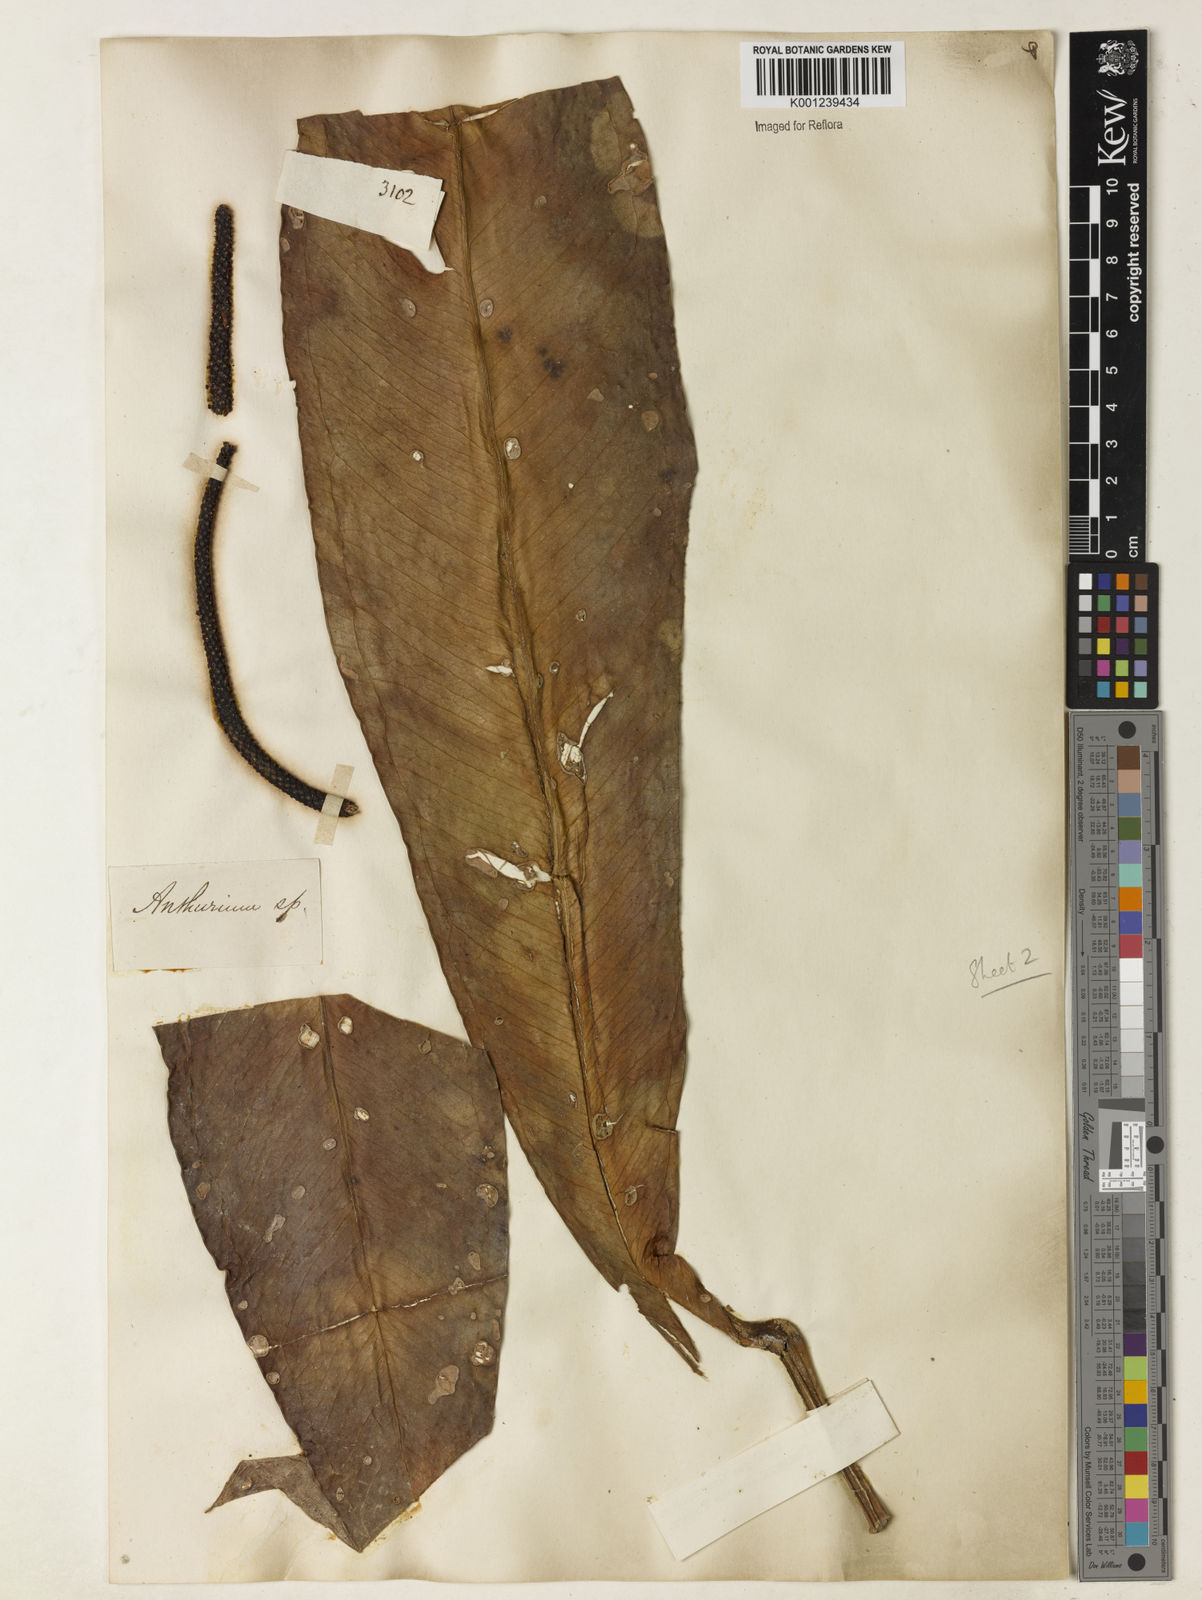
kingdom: Plantae
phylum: Tracheophyta
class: Liliopsida
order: Alismatales
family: Araceae
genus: Anthurium
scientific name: Anthurium harrisii
